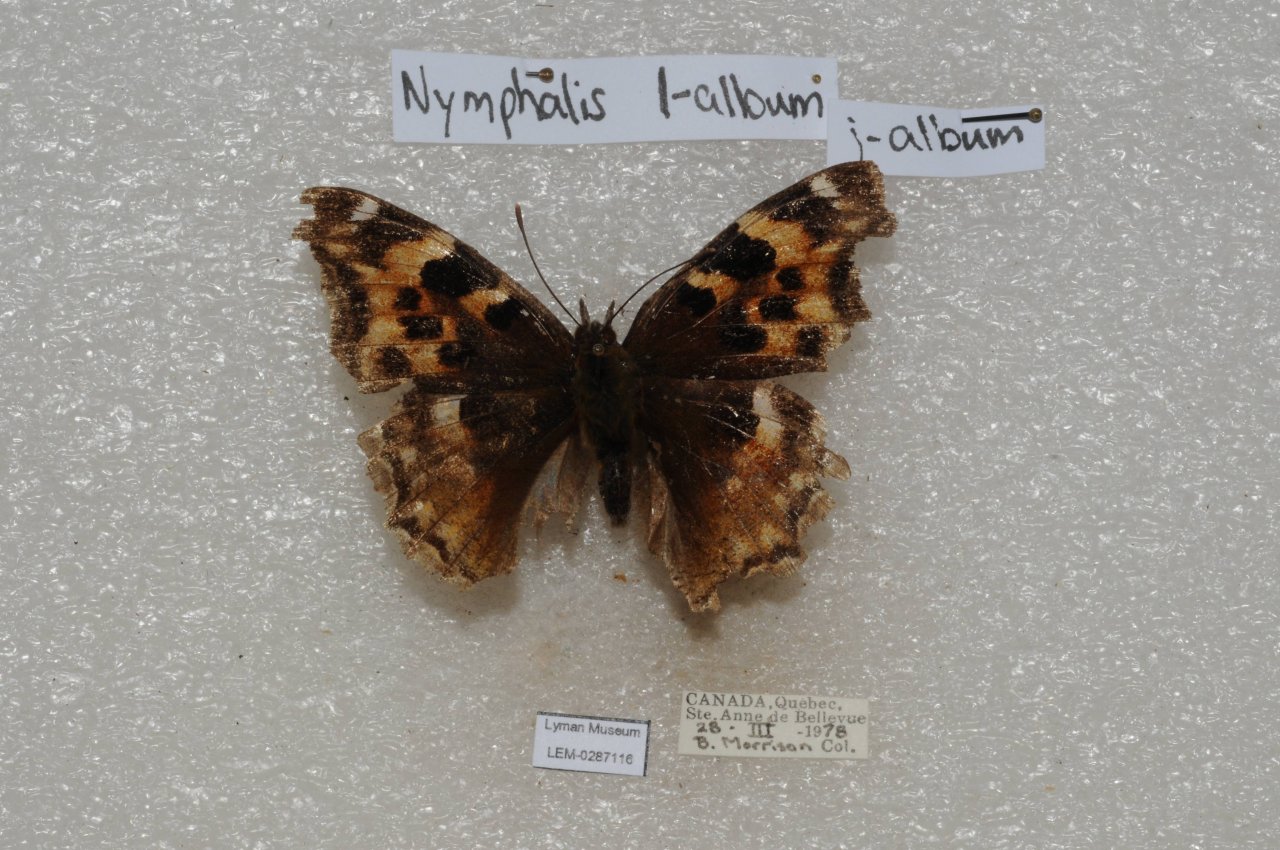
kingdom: Animalia
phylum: Arthropoda
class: Insecta
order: Lepidoptera
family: Nymphalidae
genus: Polygonia
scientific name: Polygonia vaualbum
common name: Compton Tortoiseshell
